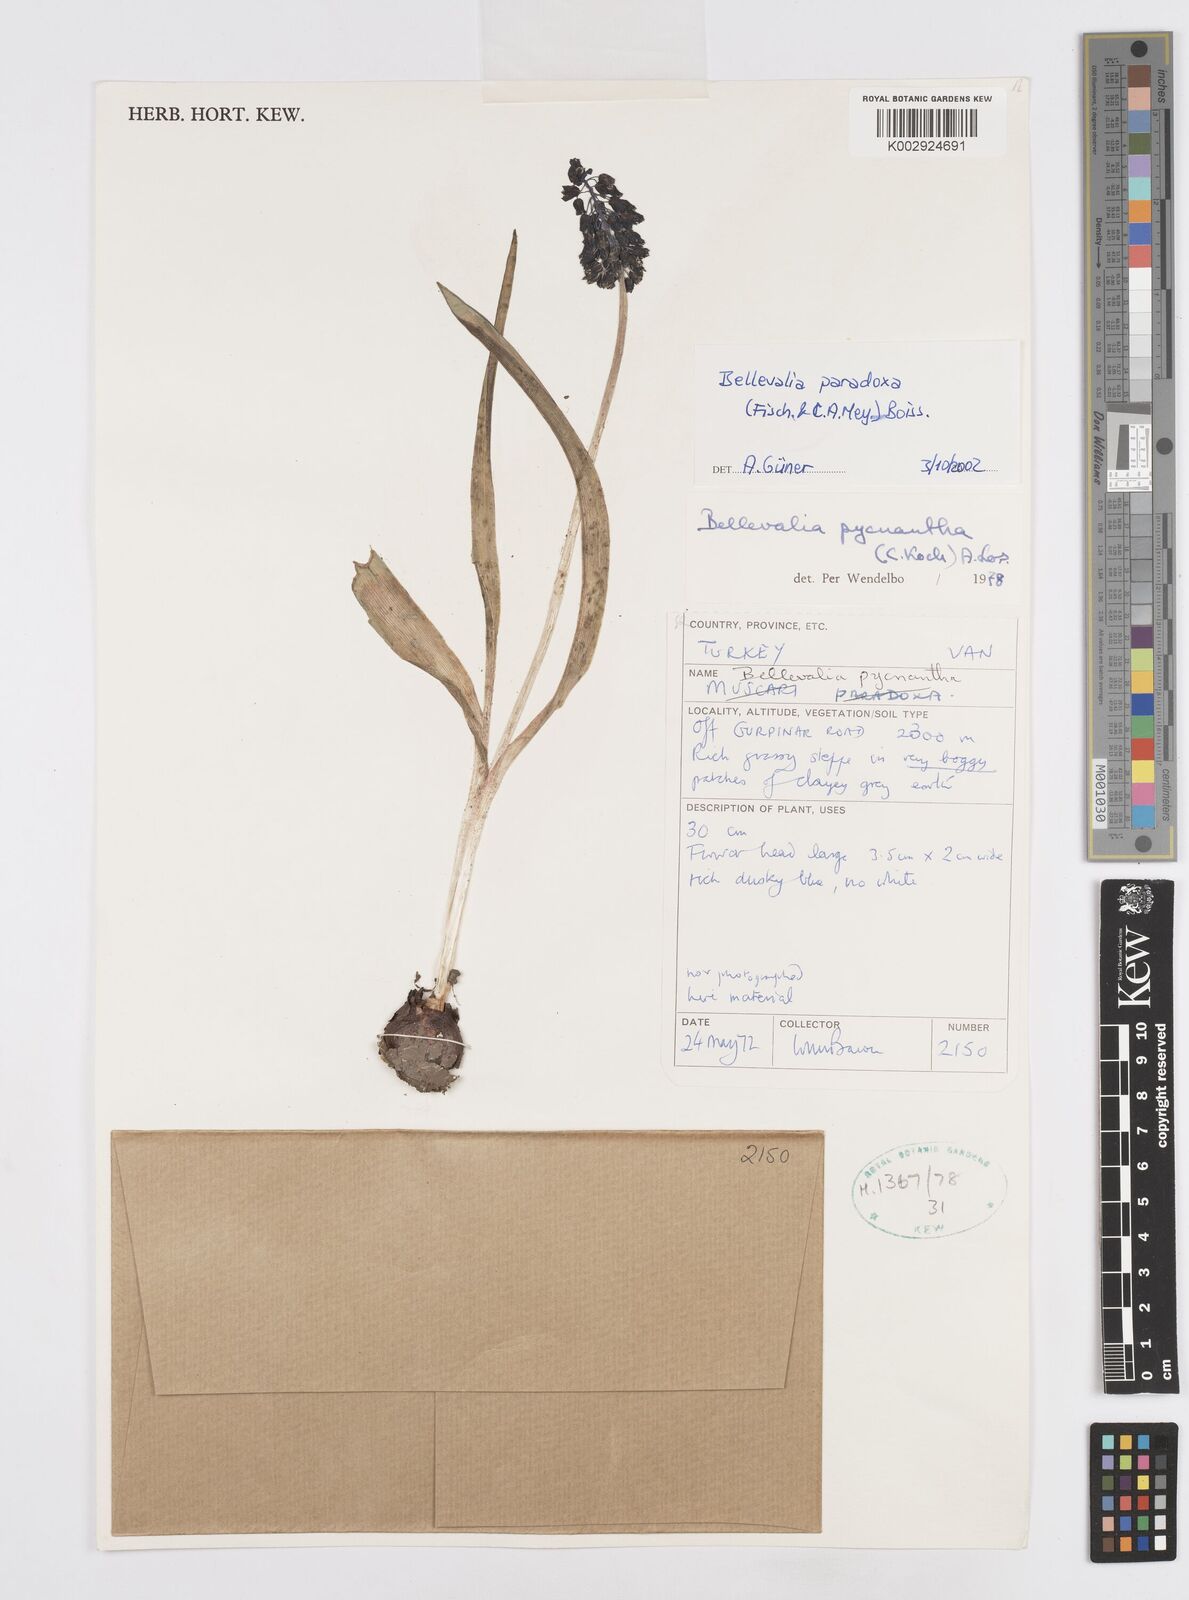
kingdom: Plantae
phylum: Tracheophyta
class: Liliopsida
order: Asparagales
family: Asparagaceae
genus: Bellevalia
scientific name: Bellevalia paradoxa
